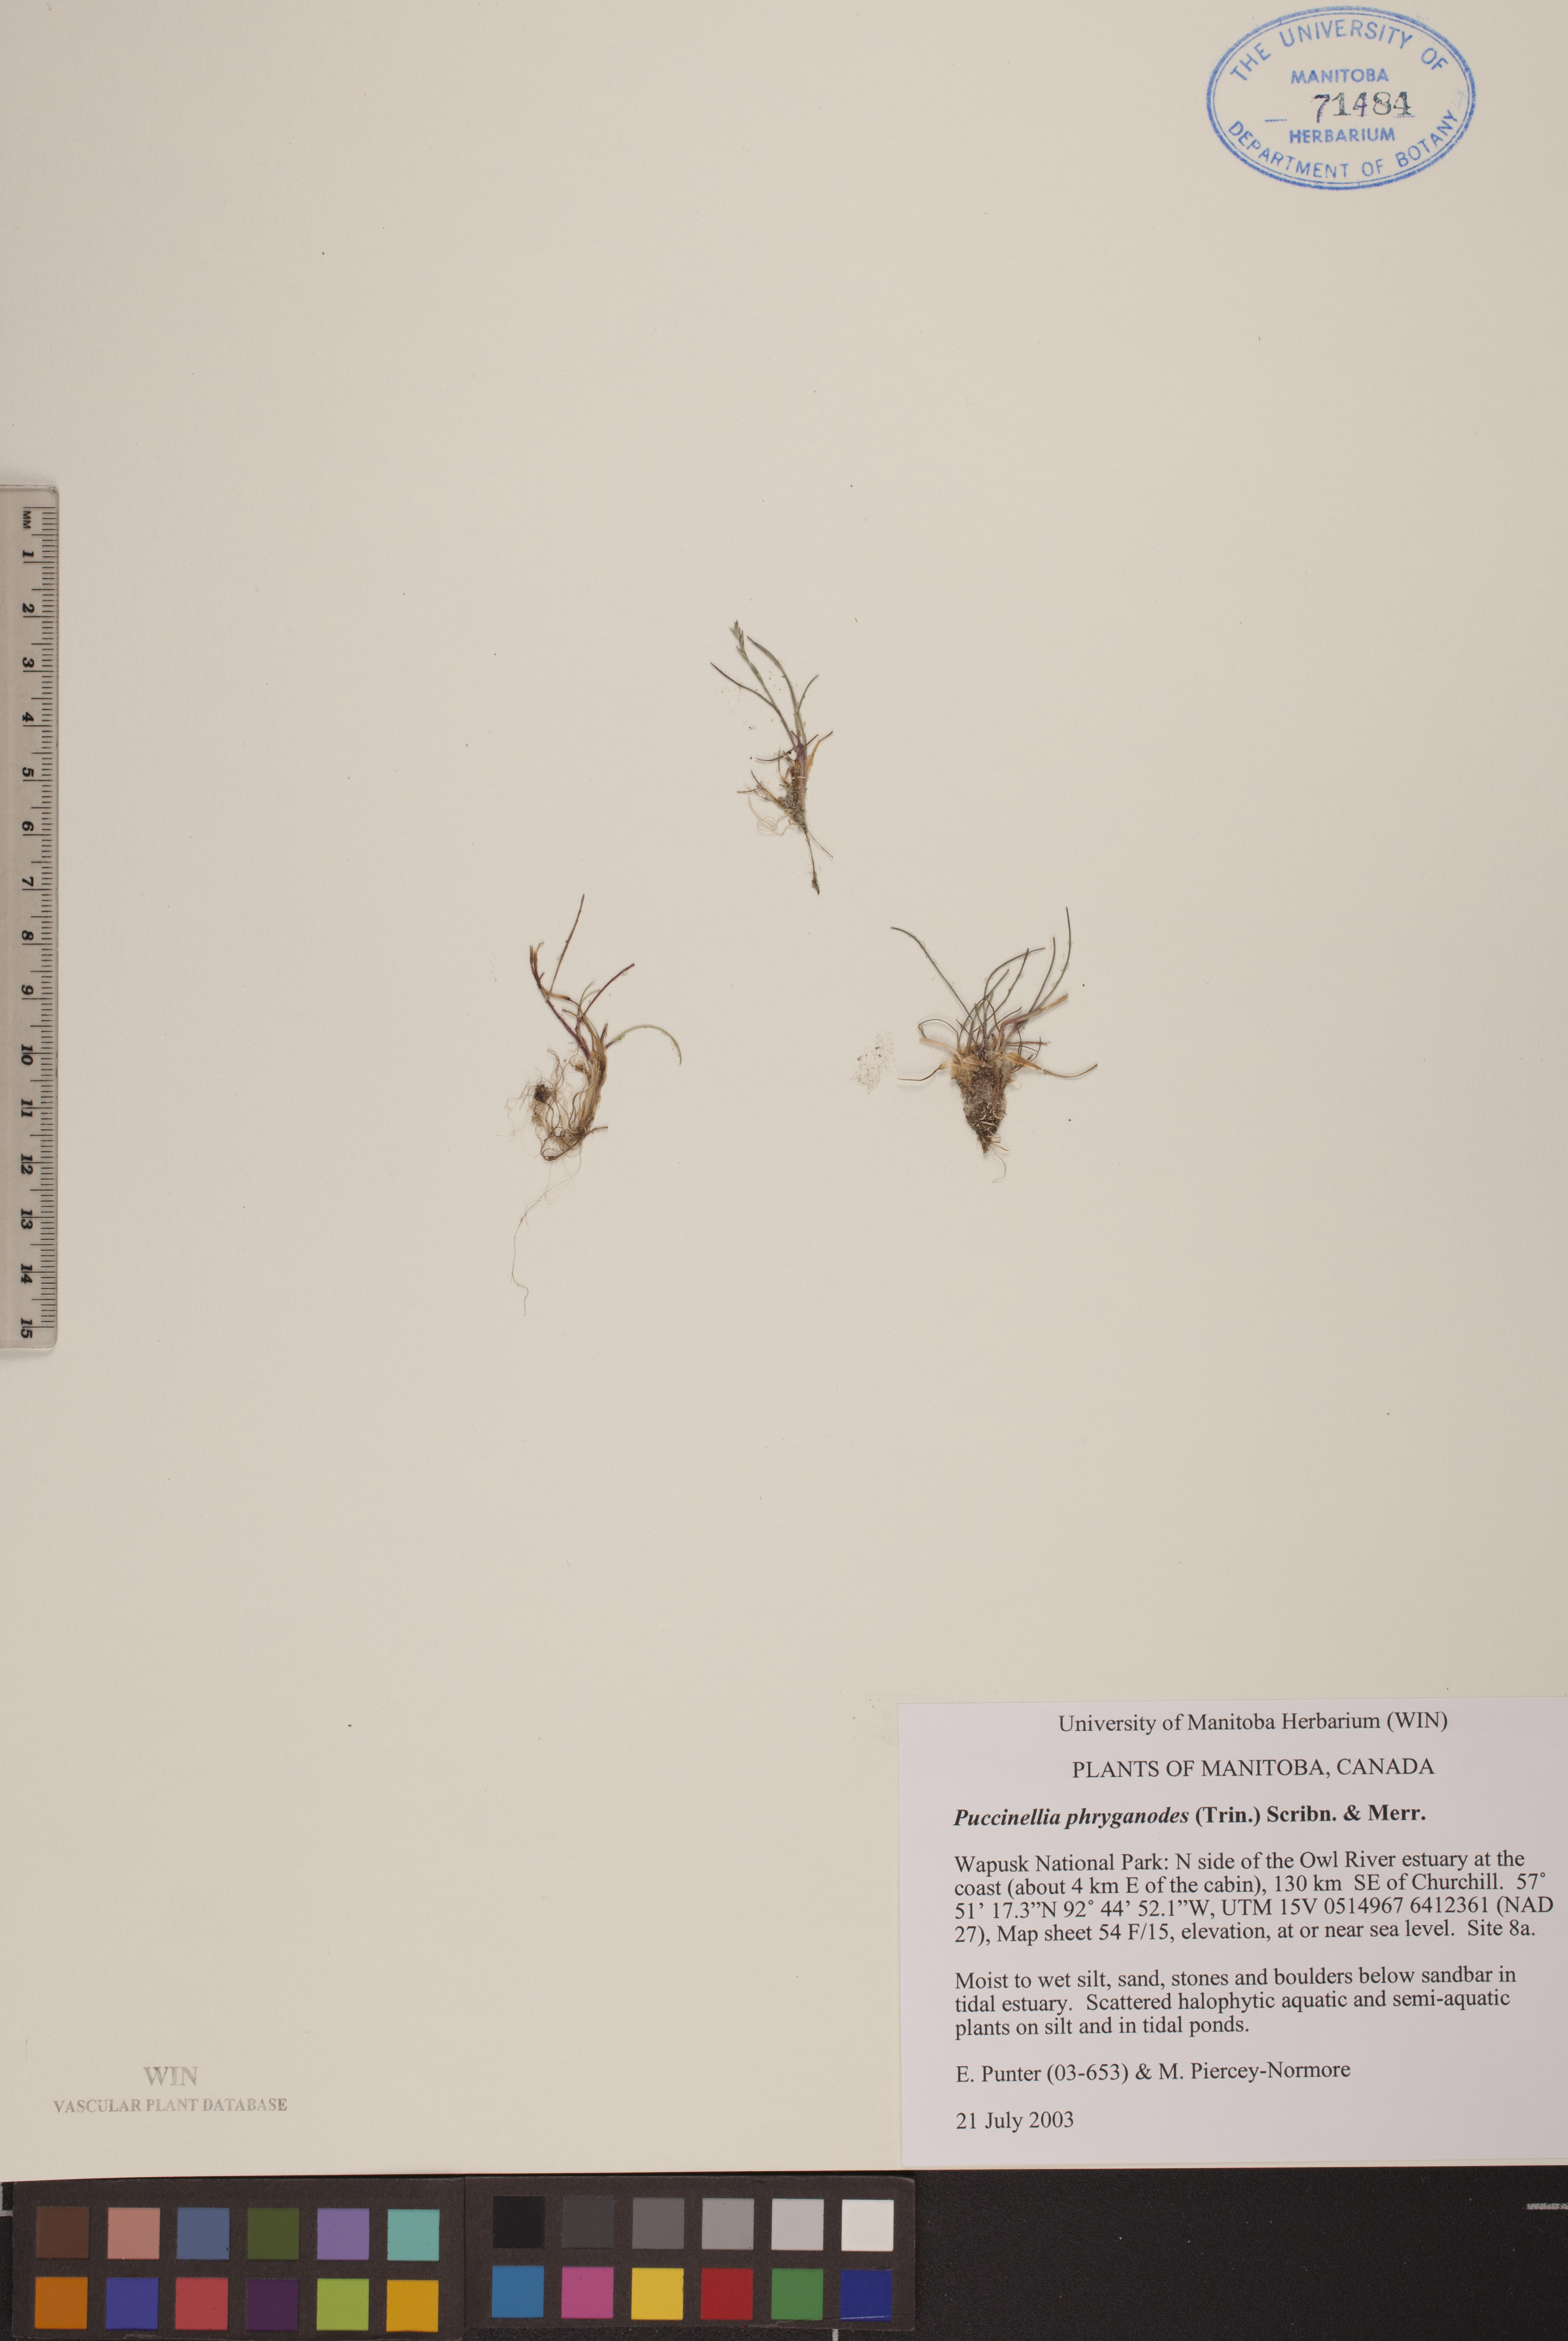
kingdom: Plantae
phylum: Tracheophyta
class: Liliopsida
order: Poales
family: Poaceae
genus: Puccinellia
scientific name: Puccinellia phryganodes
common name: Creeping alkaligrass
